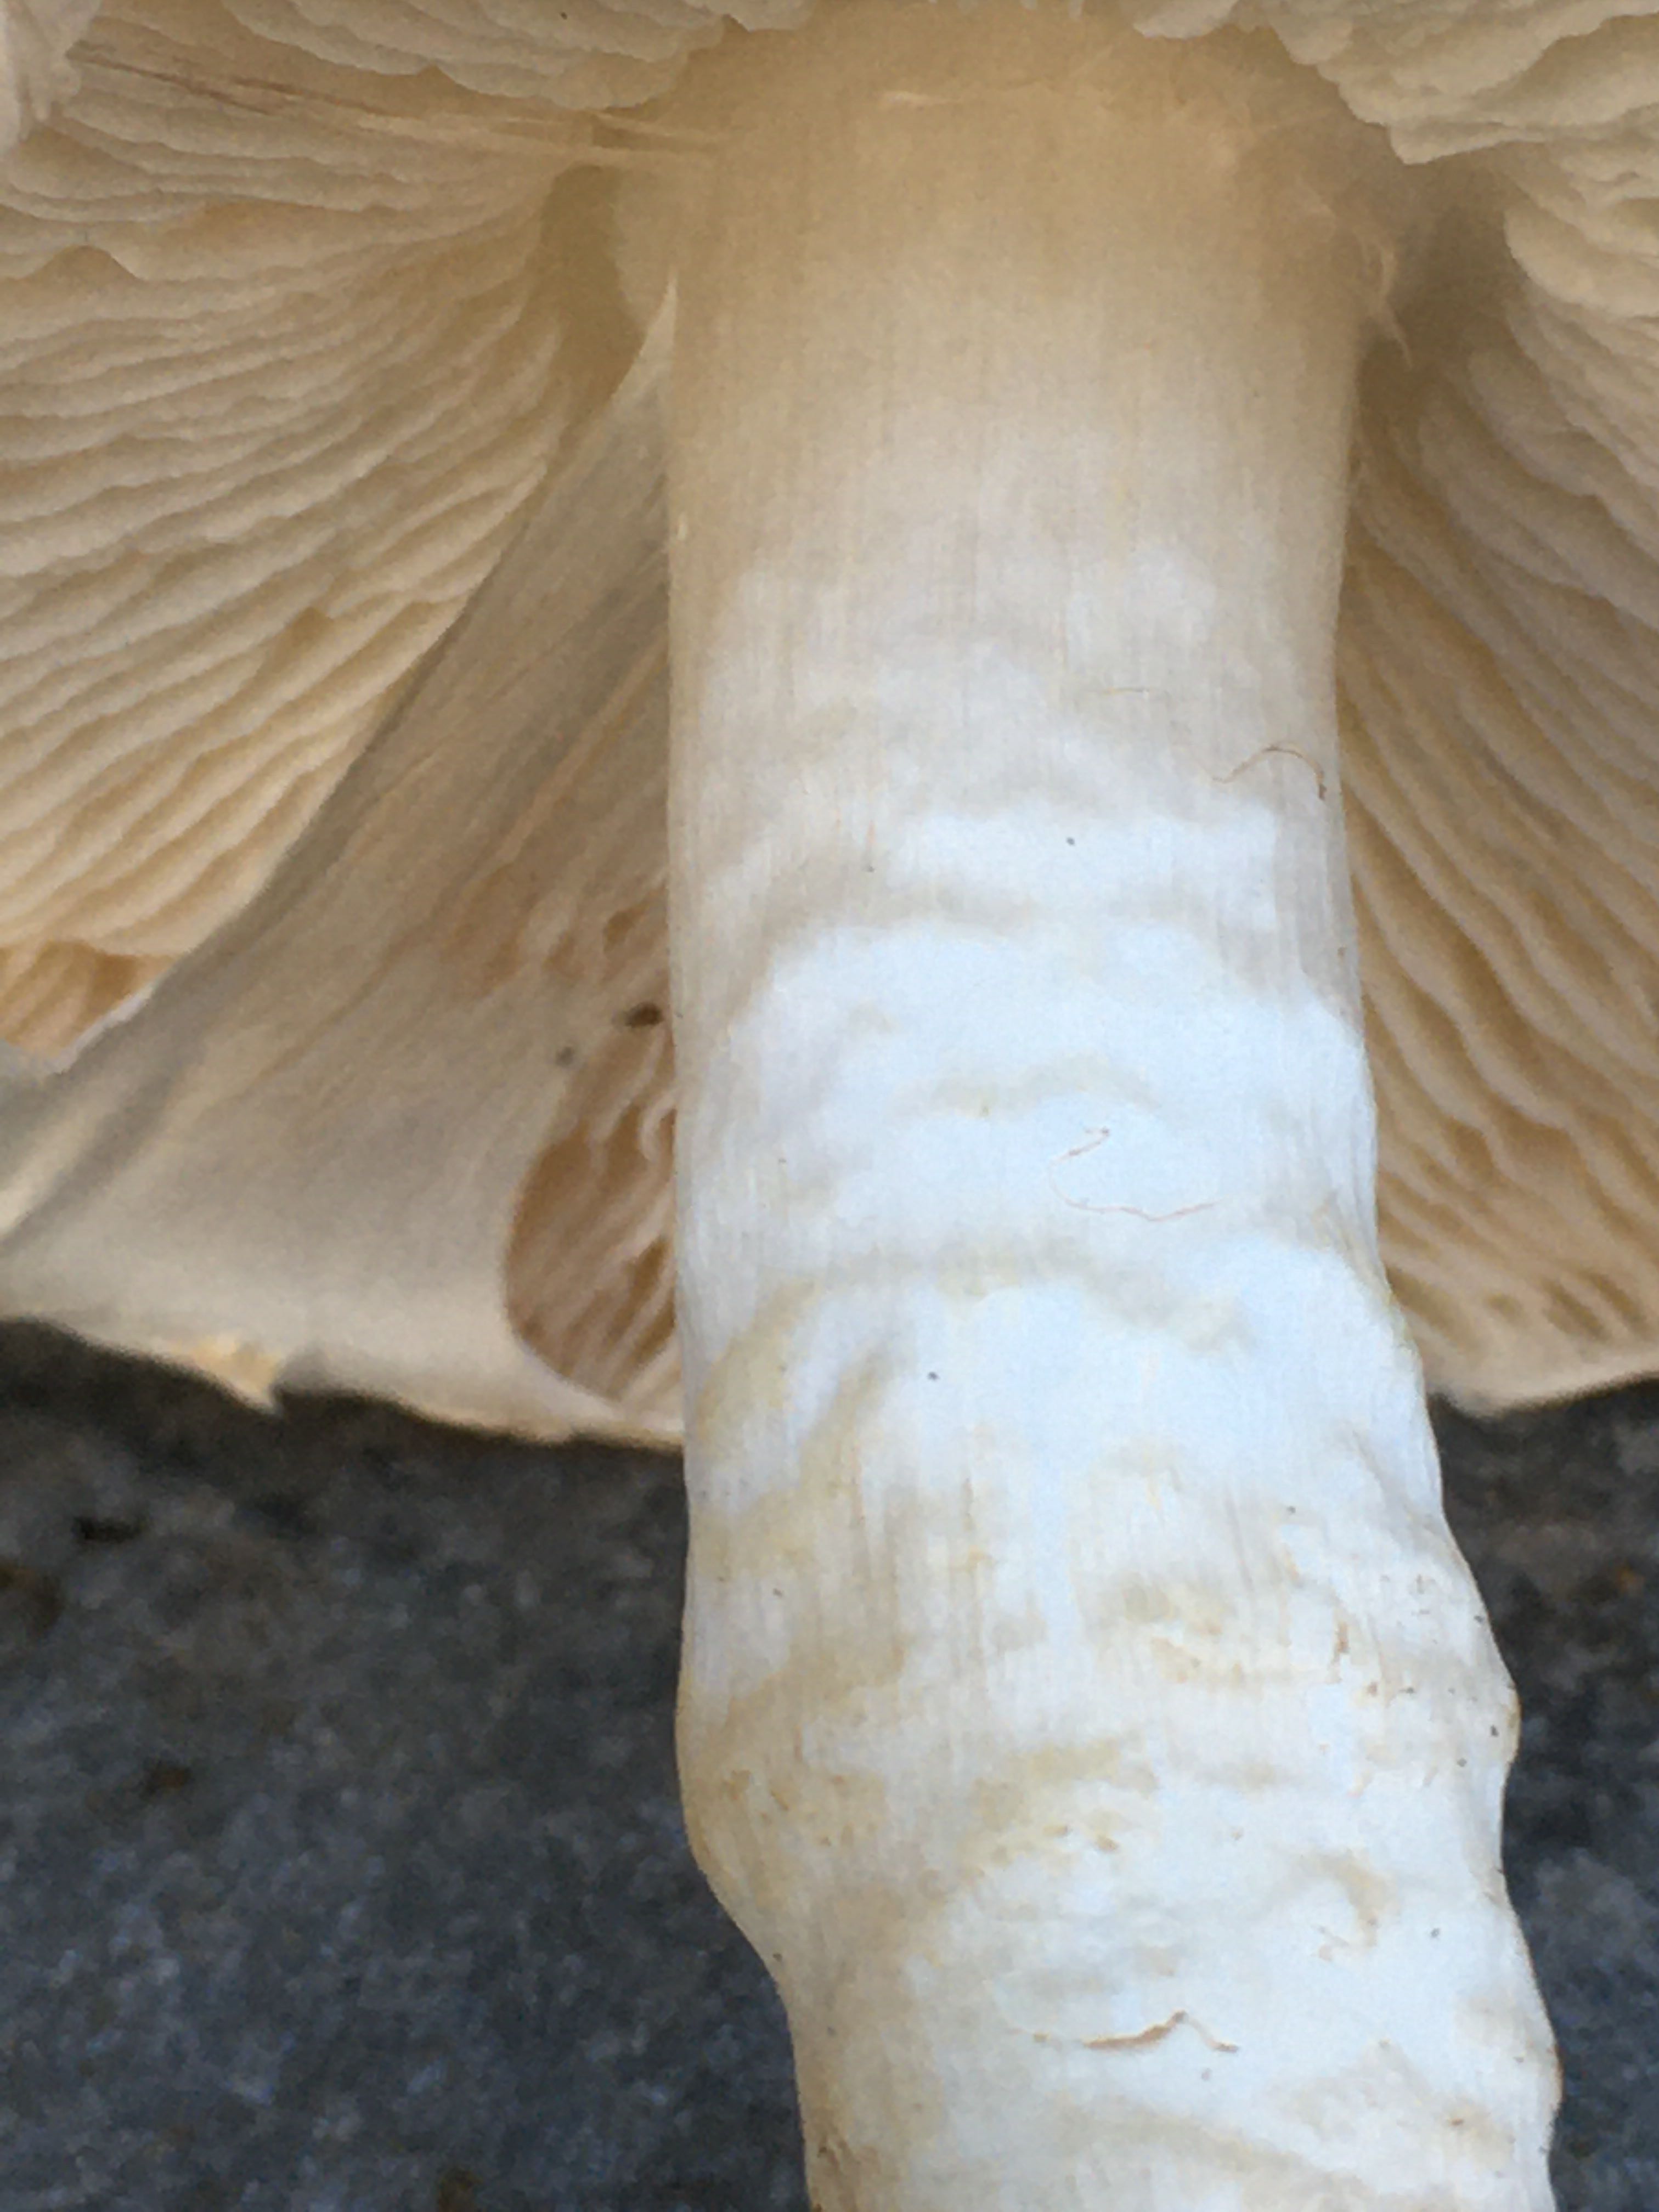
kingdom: Fungi
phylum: Basidiomycota
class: Agaricomycetes
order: Agaricales
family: Agaricaceae
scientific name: Agaricaceae
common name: champignonfamilien
